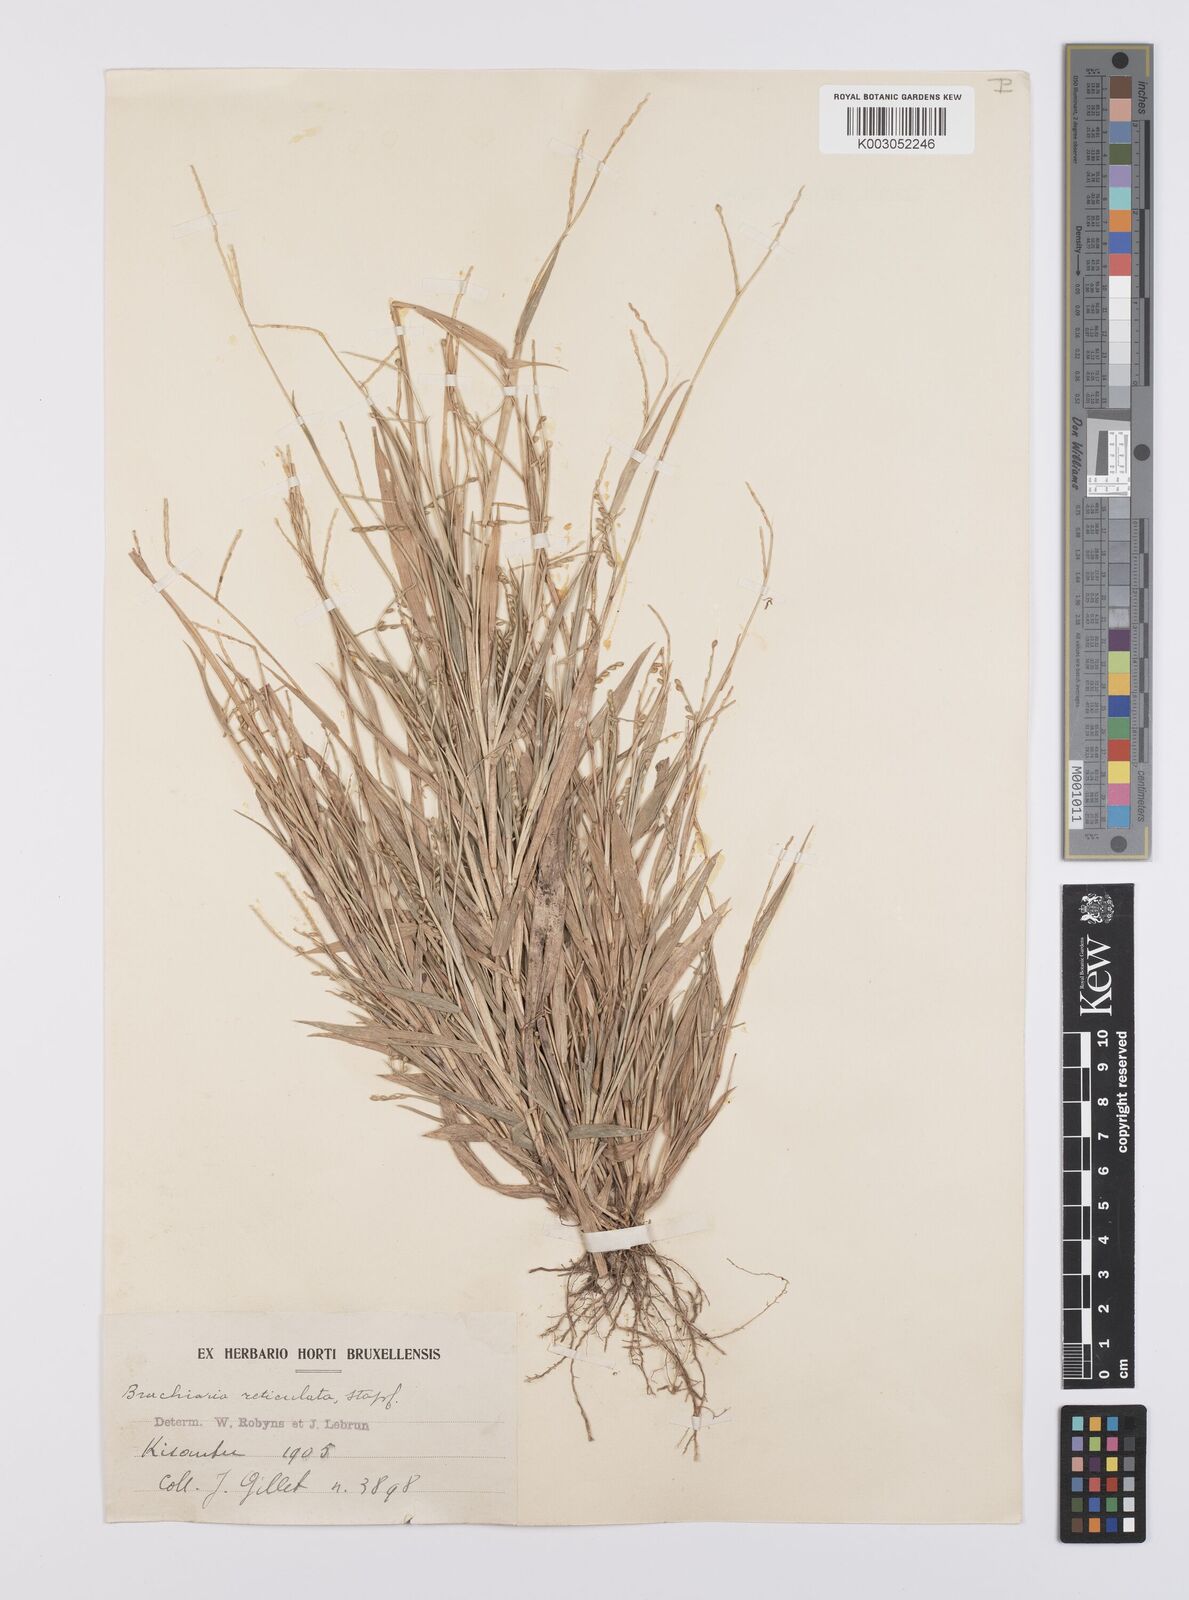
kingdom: Plantae
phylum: Tracheophyta
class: Liliopsida
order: Poales
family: Poaceae
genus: Urochloa
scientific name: Urochloa reticulata
